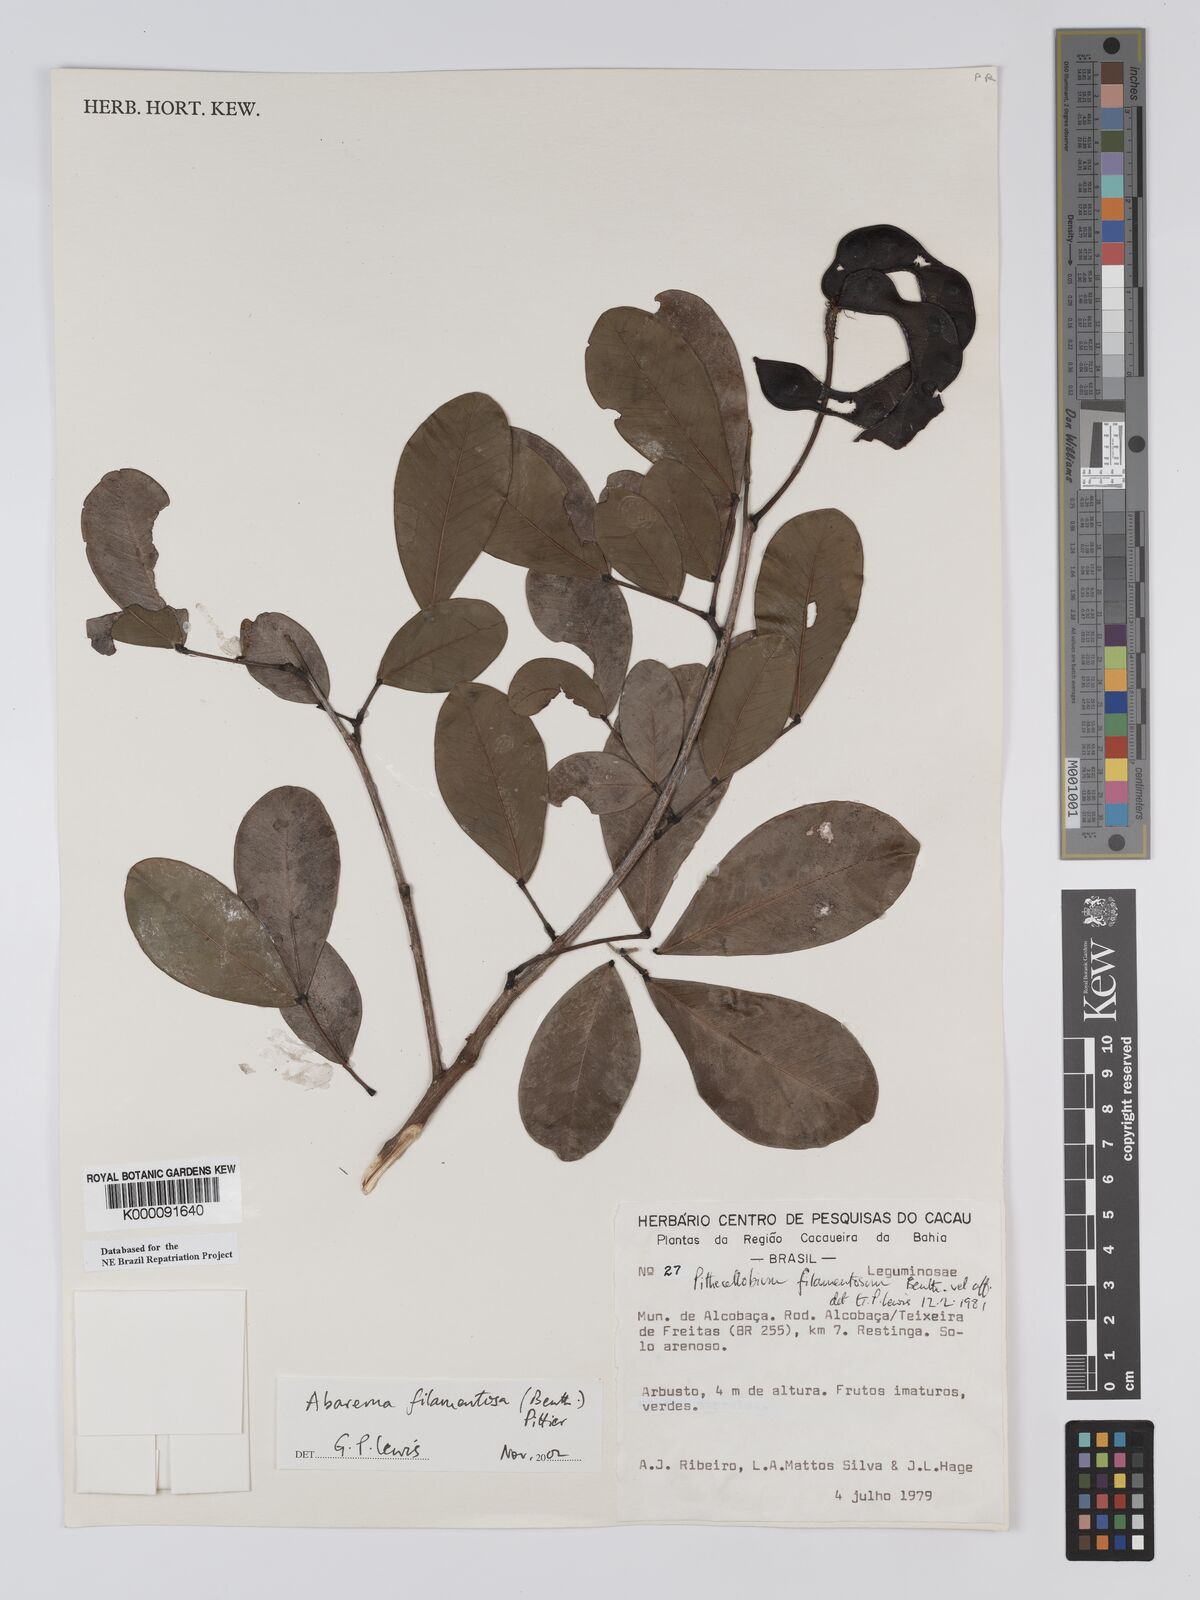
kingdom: Plantae
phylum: Tracheophyta
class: Magnoliopsida
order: Fabales
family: Fabaceae
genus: Jupunba
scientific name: Jupunba filamentosa
